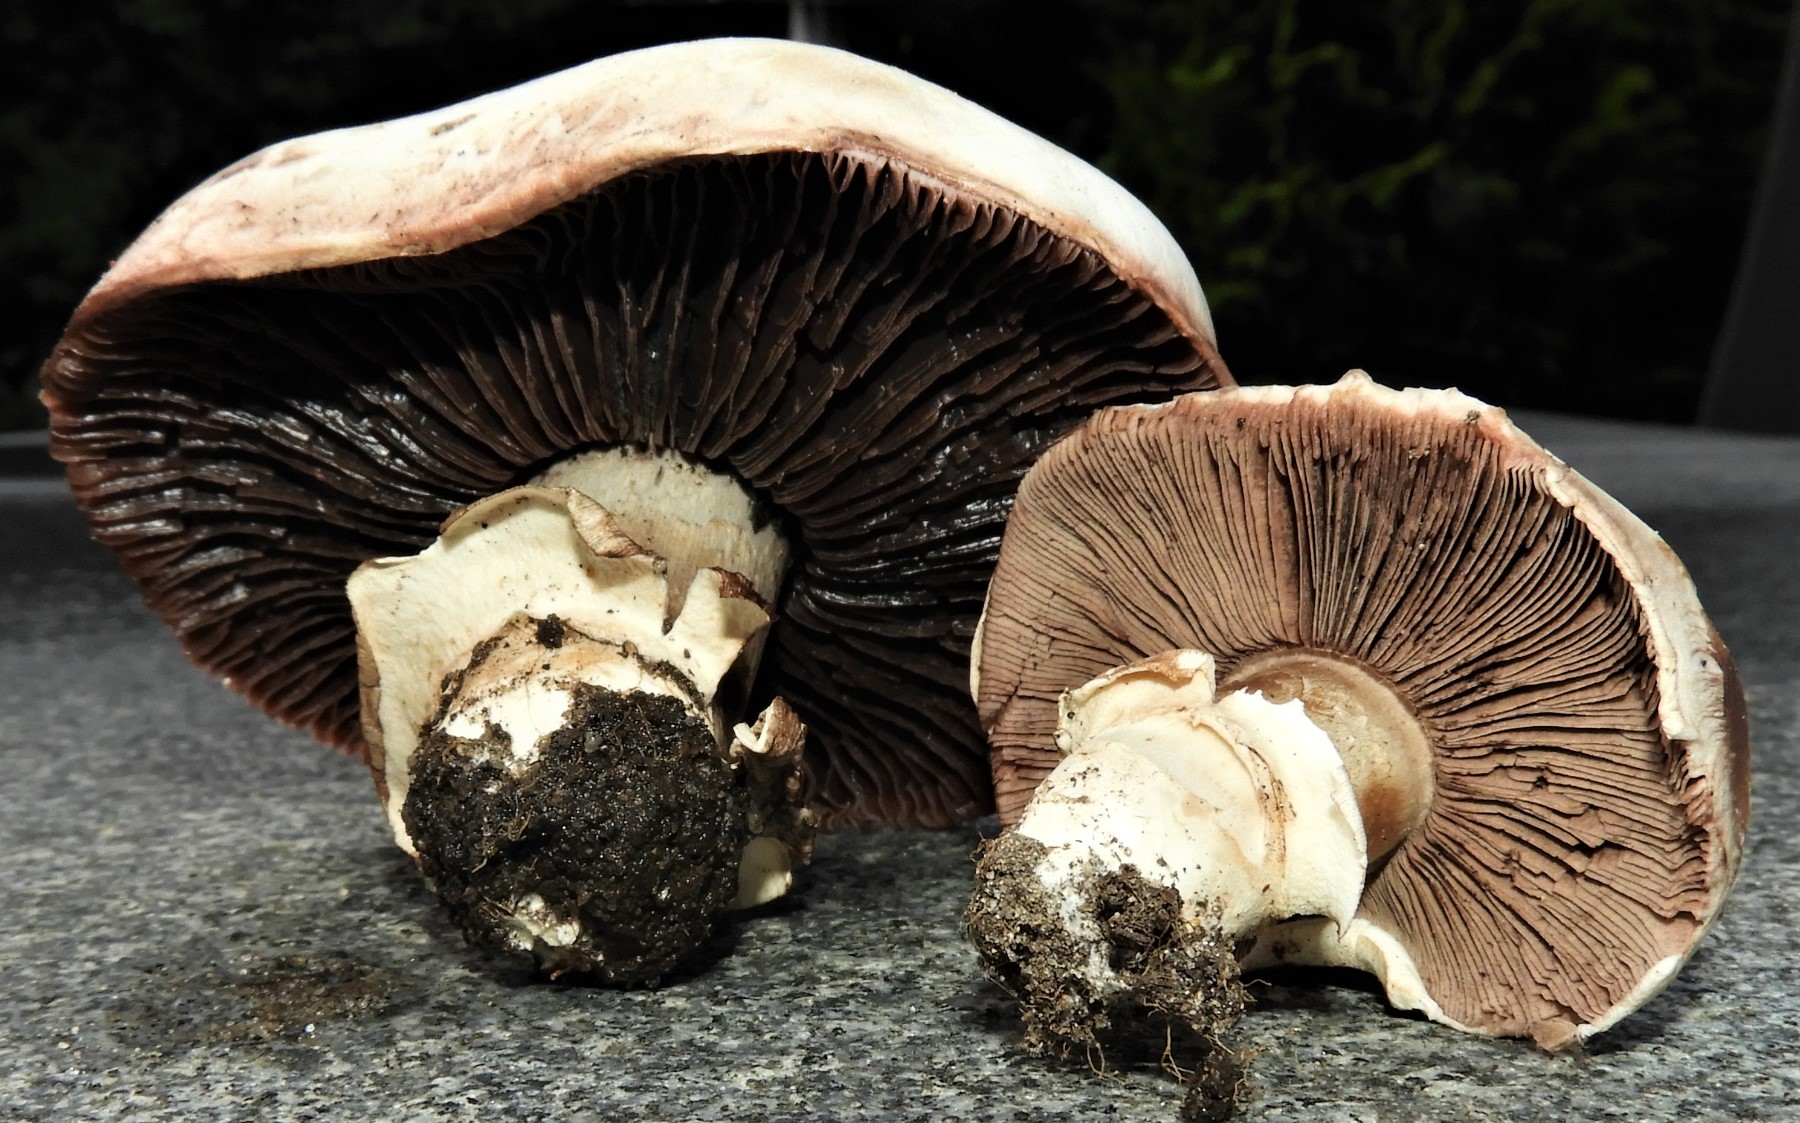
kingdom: Fungi
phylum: Basidiomycota
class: Agaricomycetes
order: Agaricales
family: Agaricaceae
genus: Agaricus
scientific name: Agaricus bitorquis
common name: vej-champignon
